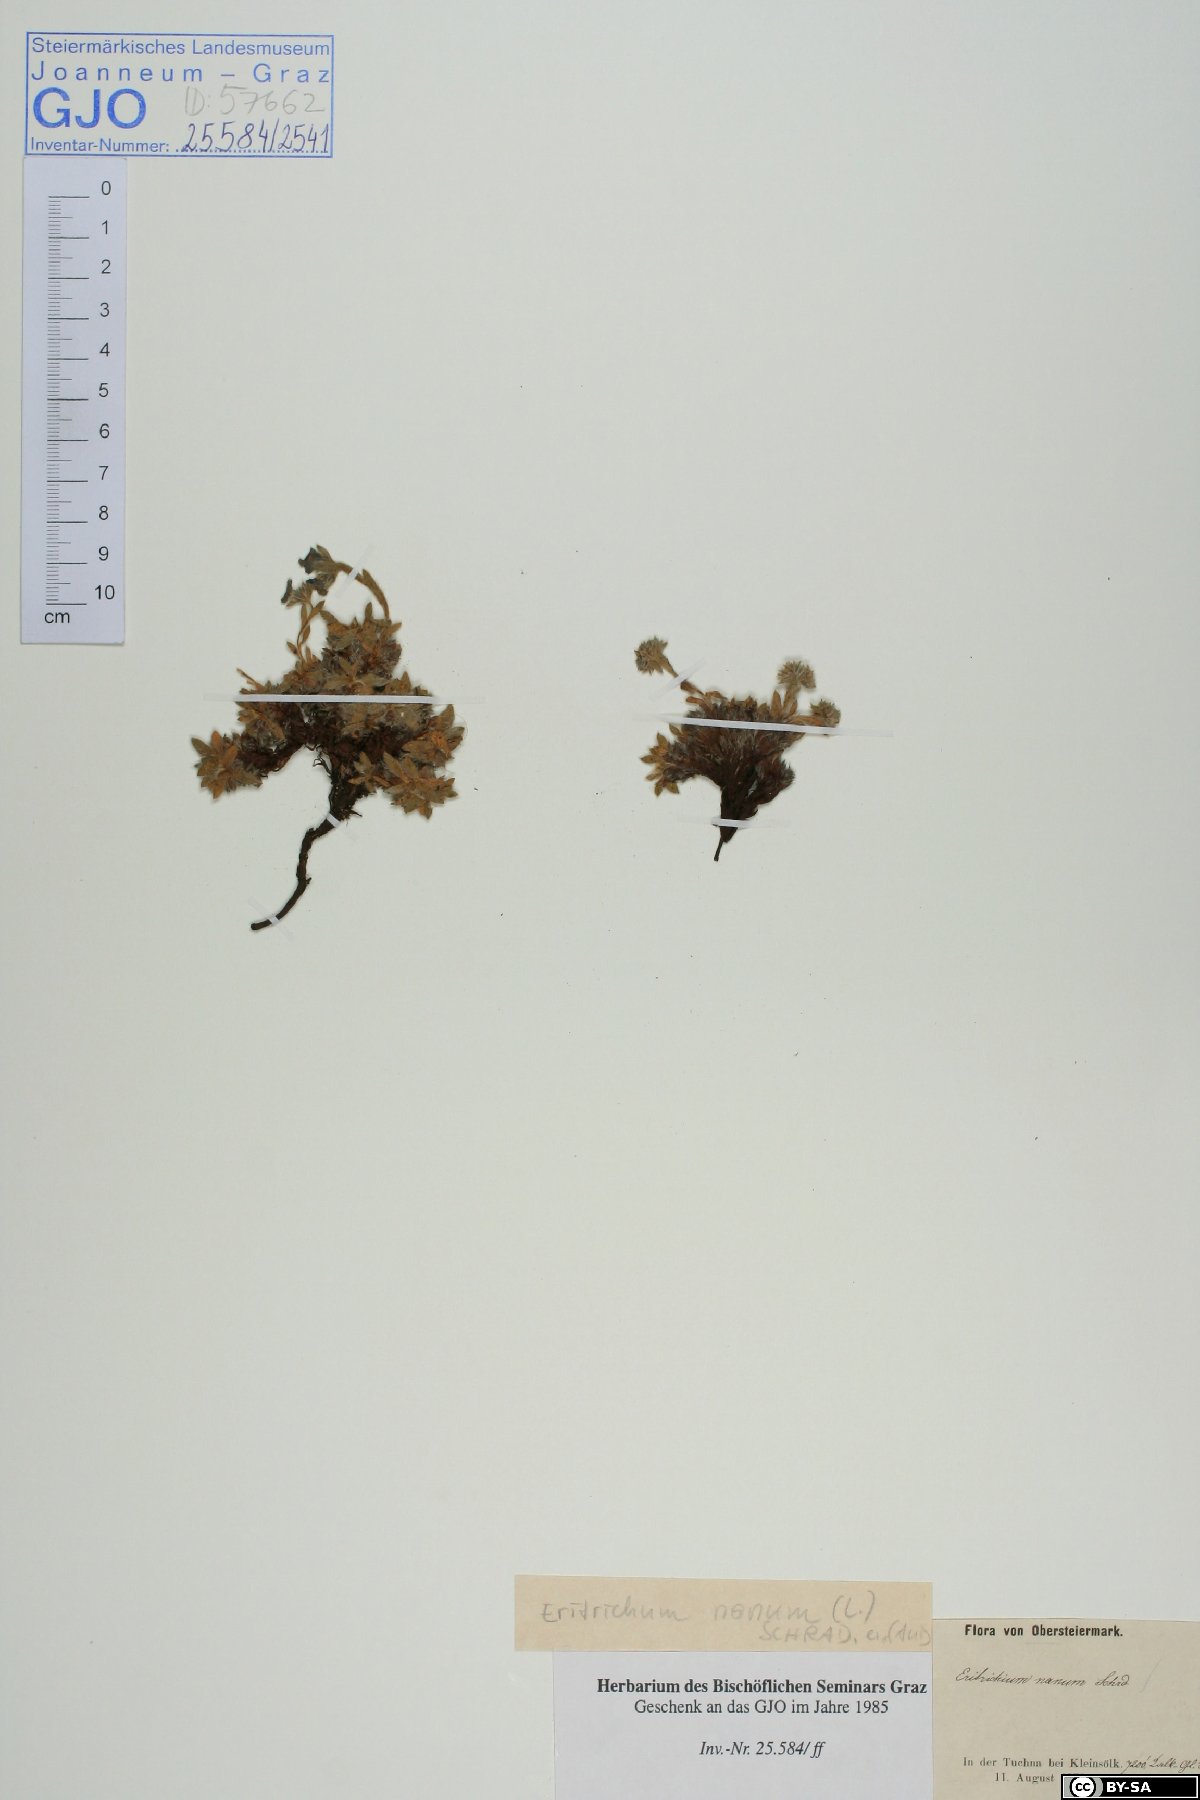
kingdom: Plantae
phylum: Tracheophyta
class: Magnoliopsida
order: Boraginales
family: Boraginaceae
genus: Eritrichium
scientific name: Eritrichium nanum
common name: King-of-the-alps
